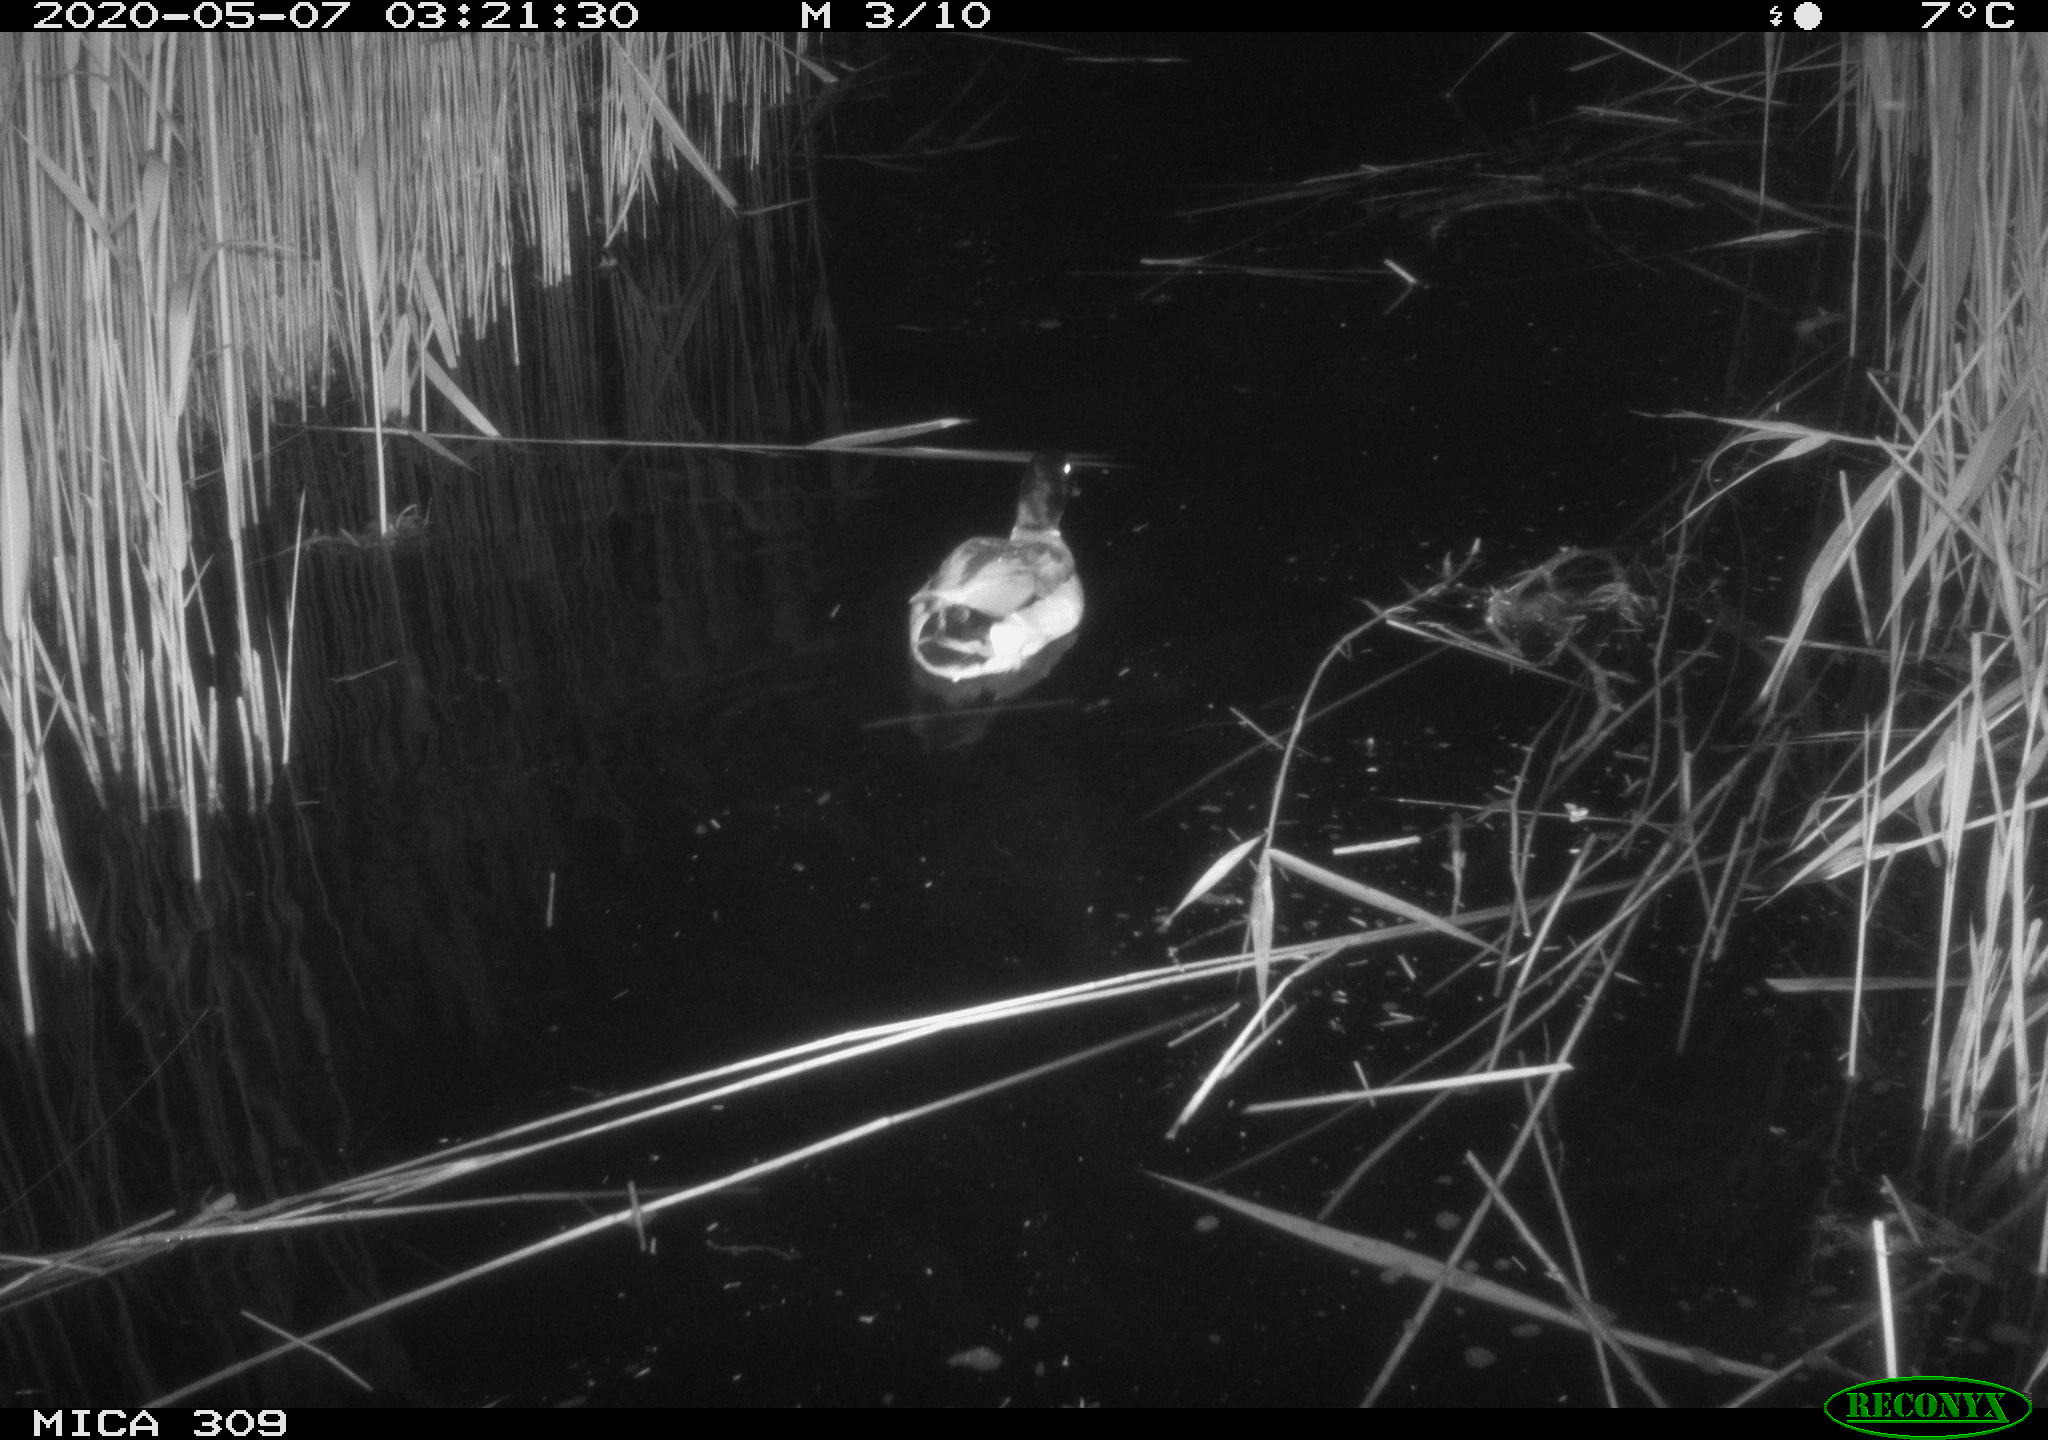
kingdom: Animalia
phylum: Chordata
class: Aves
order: Anseriformes
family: Anatidae
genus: Anas
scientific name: Anas platyrhynchos
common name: Mallard
